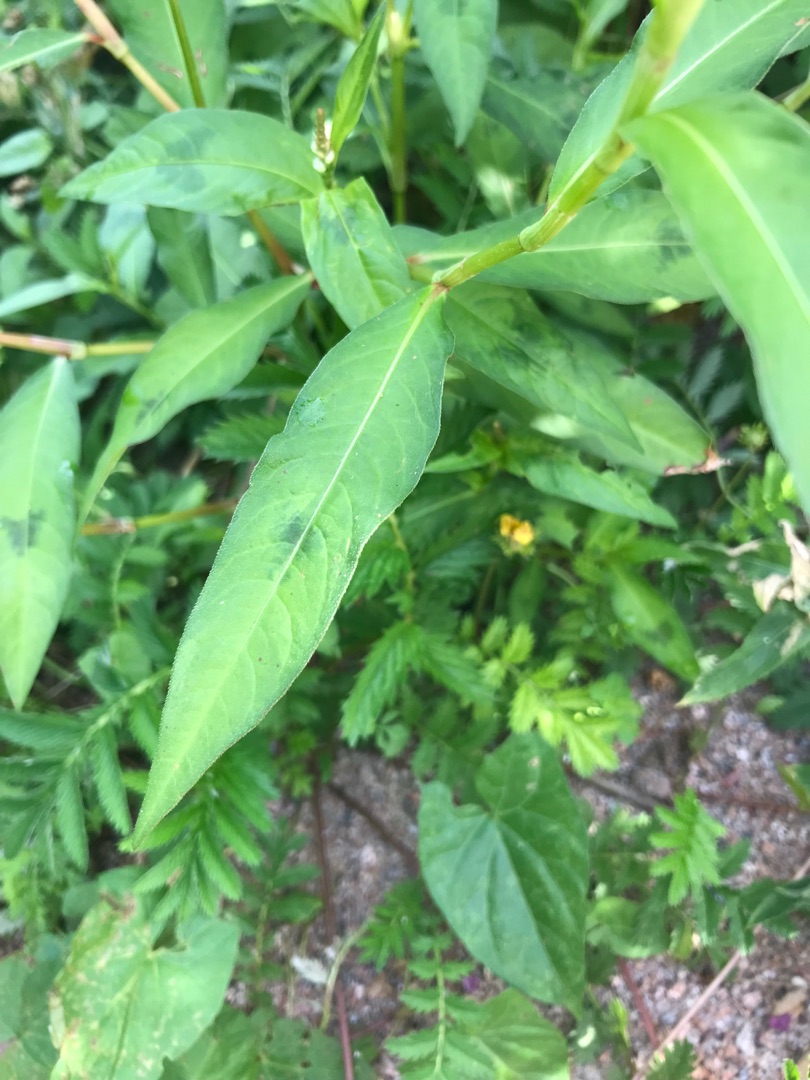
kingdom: Plantae
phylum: Tracheophyta
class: Magnoliopsida
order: Caryophyllales
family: Polygonaceae
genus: Persicaria
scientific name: Persicaria maculosa
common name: Fersken-pileurt
